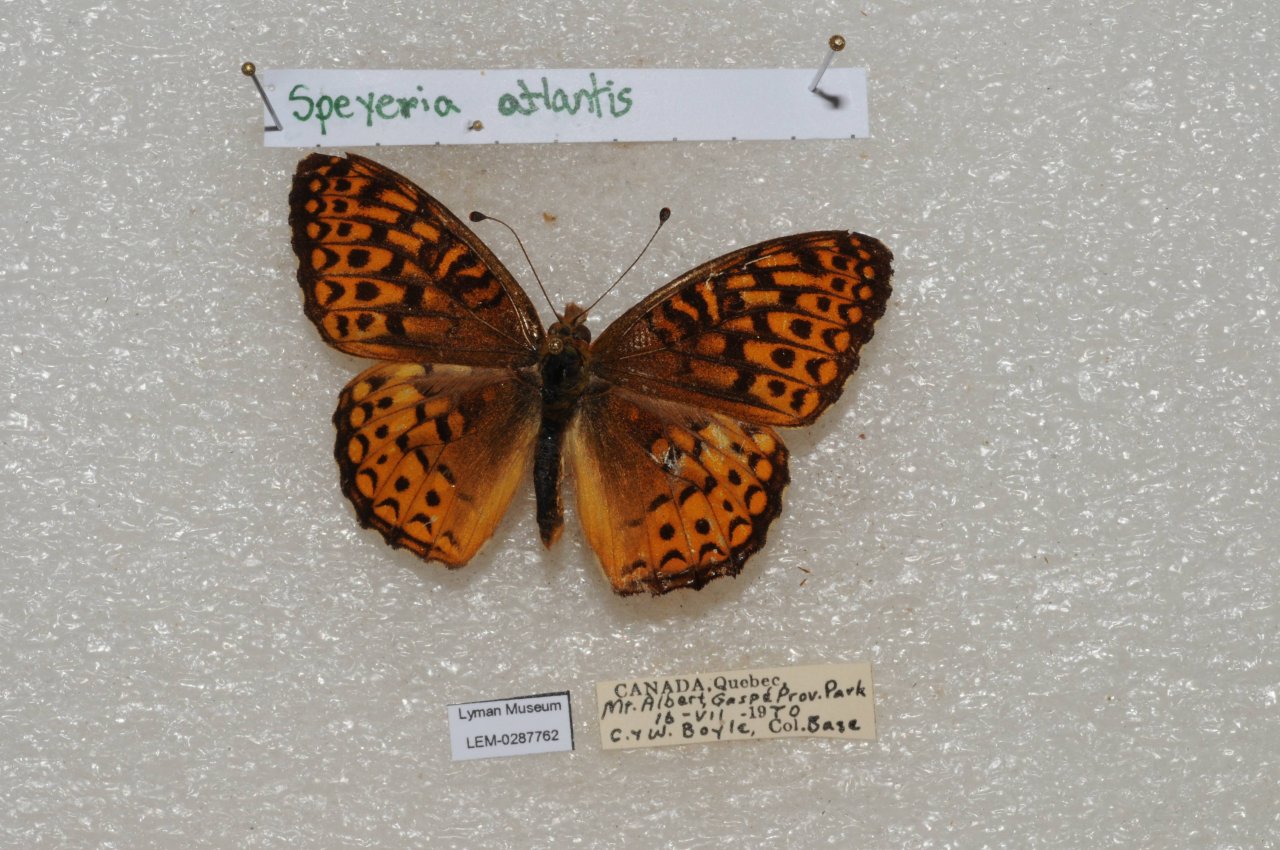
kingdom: Animalia
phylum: Arthropoda
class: Insecta
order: Lepidoptera
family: Nymphalidae
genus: Speyeria
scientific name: Speyeria atlantis
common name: Atlantis Fritillary
